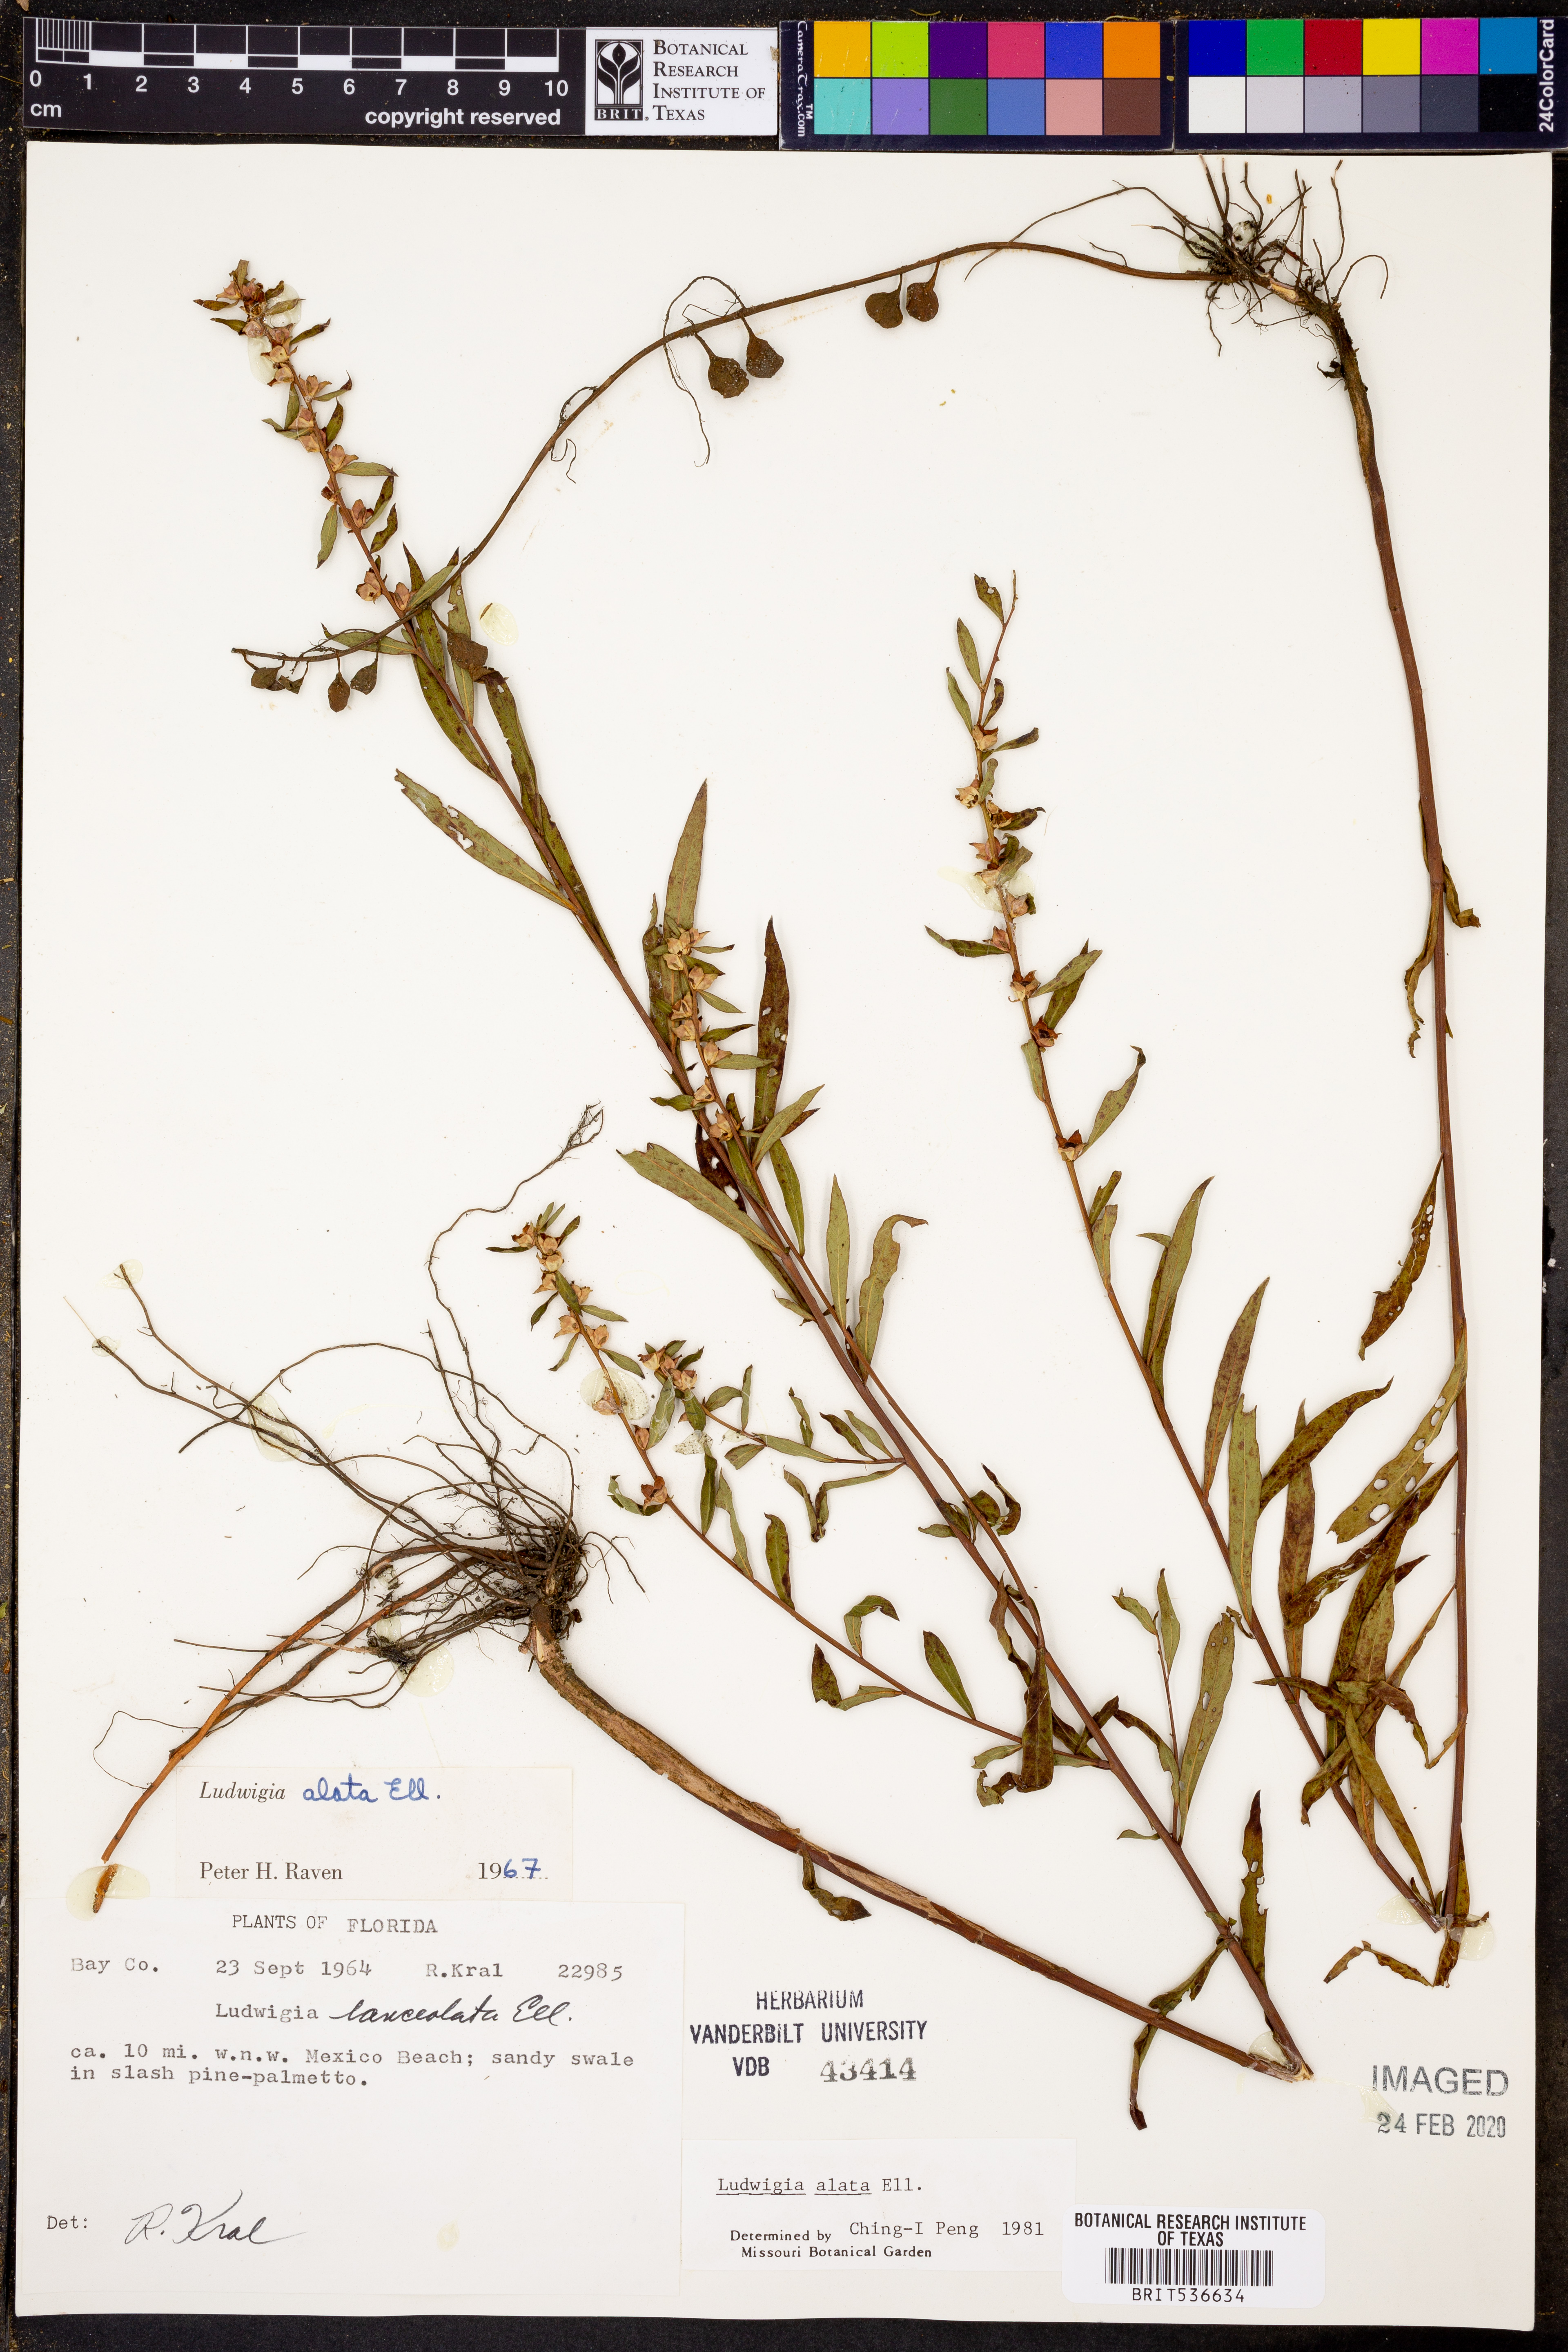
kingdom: Plantae
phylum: Tracheophyta
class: Magnoliopsida
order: Myrtales
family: Onagraceae
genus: Ludwigia
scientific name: Ludwigia alata
